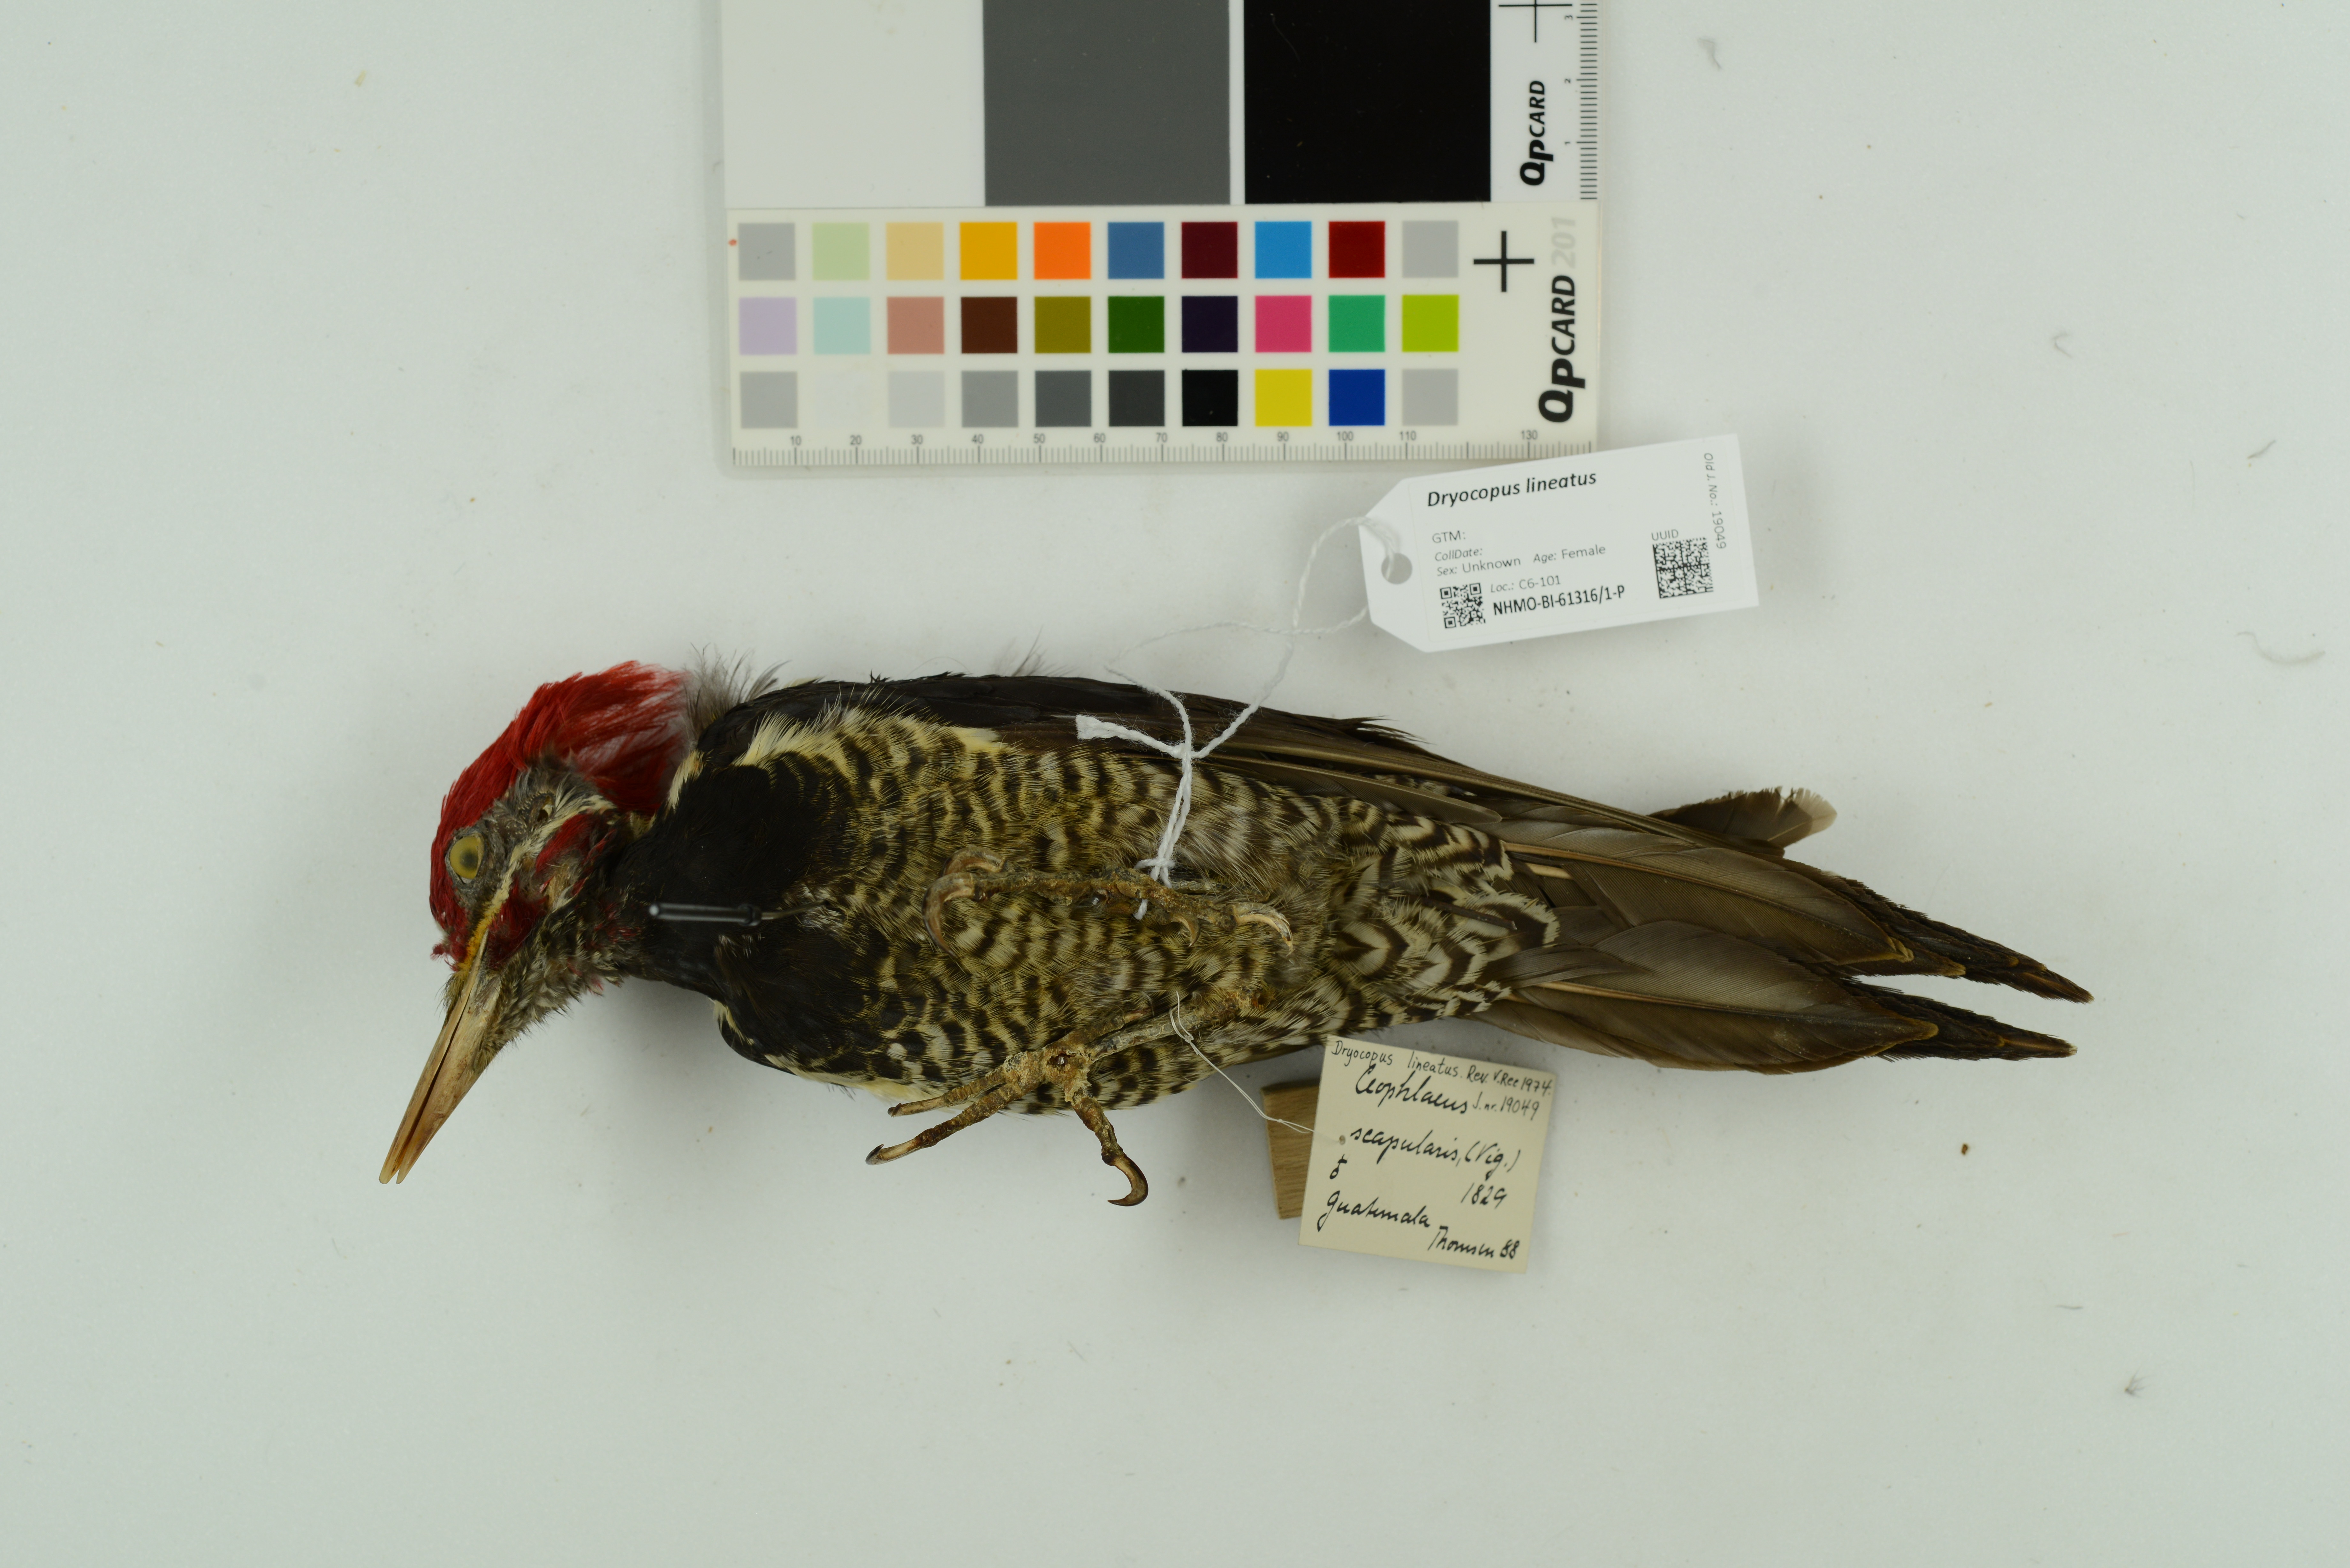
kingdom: Animalia
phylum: Chordata
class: Aves
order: Piciformes
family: Picidae
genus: Dryocopus
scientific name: Dryocopus lineatus
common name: Lineated woodpecker
